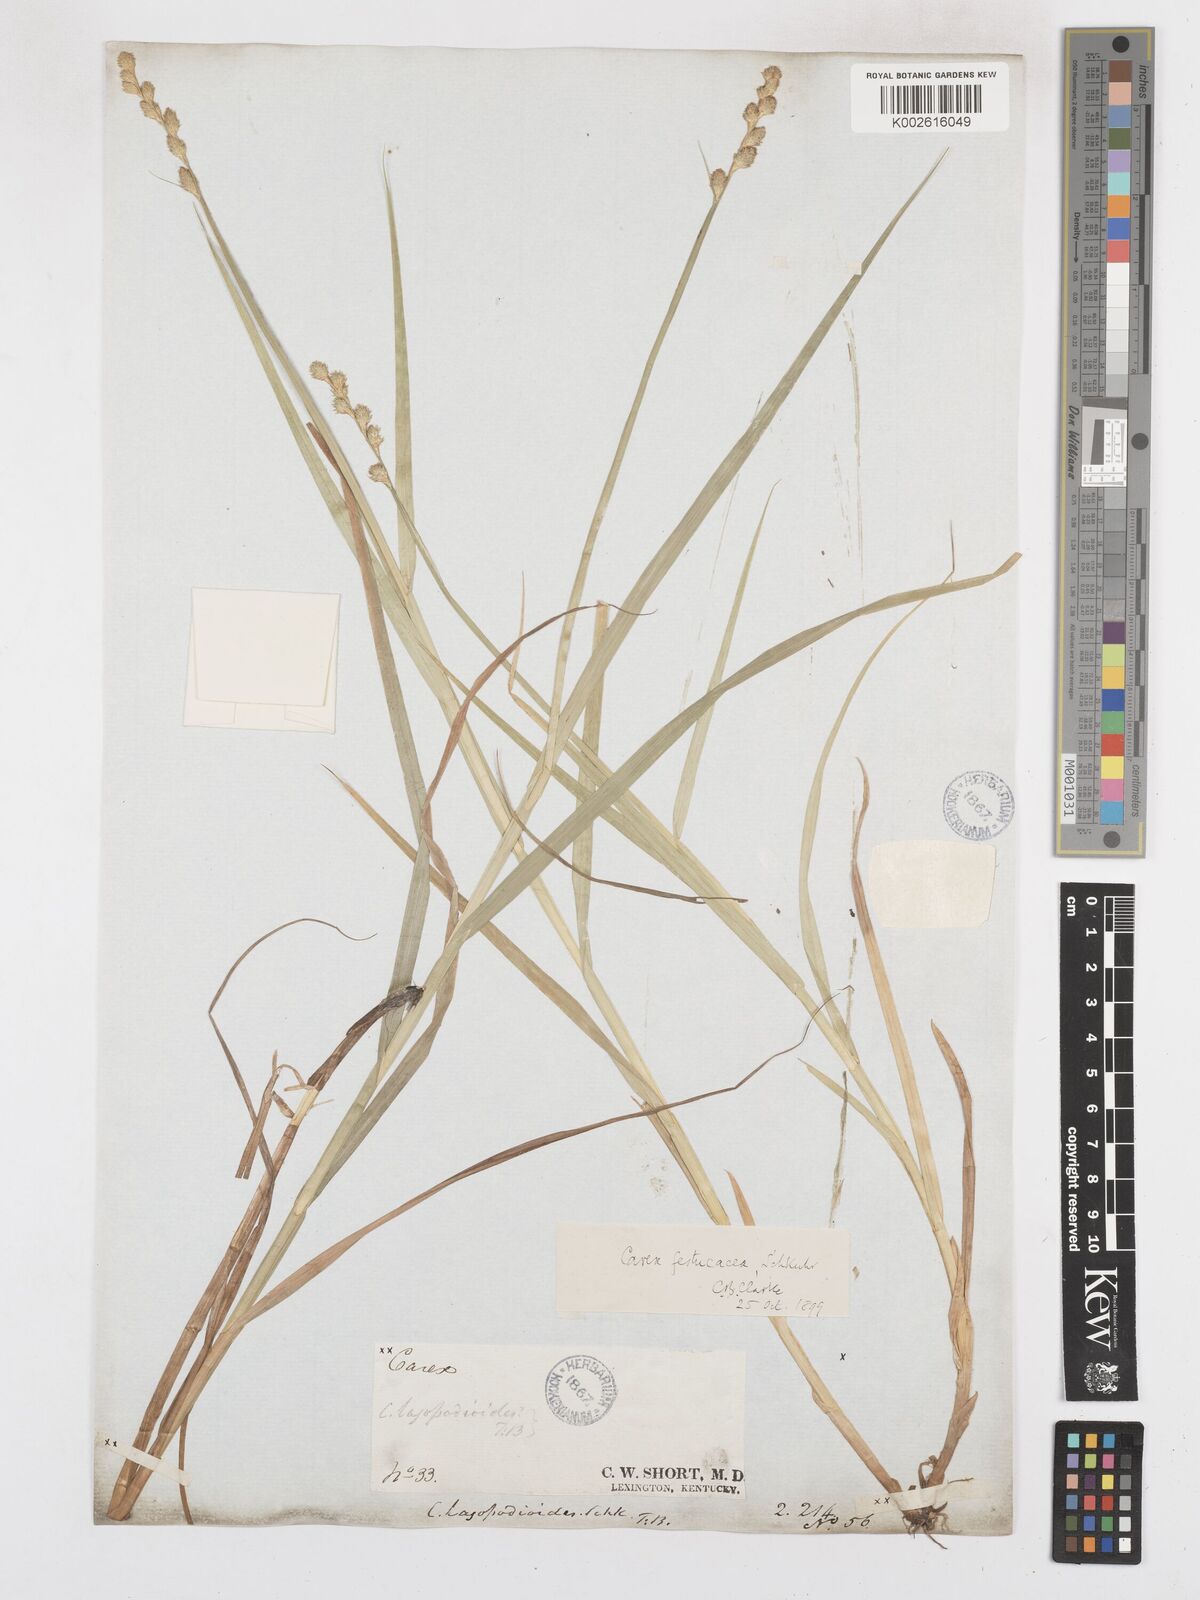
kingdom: Plantae
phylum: Tracheophyta
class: Liliopsida
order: Poales
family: Cyperaceae
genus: Carex
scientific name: Carex festucacea
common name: Fescue oval sedge
